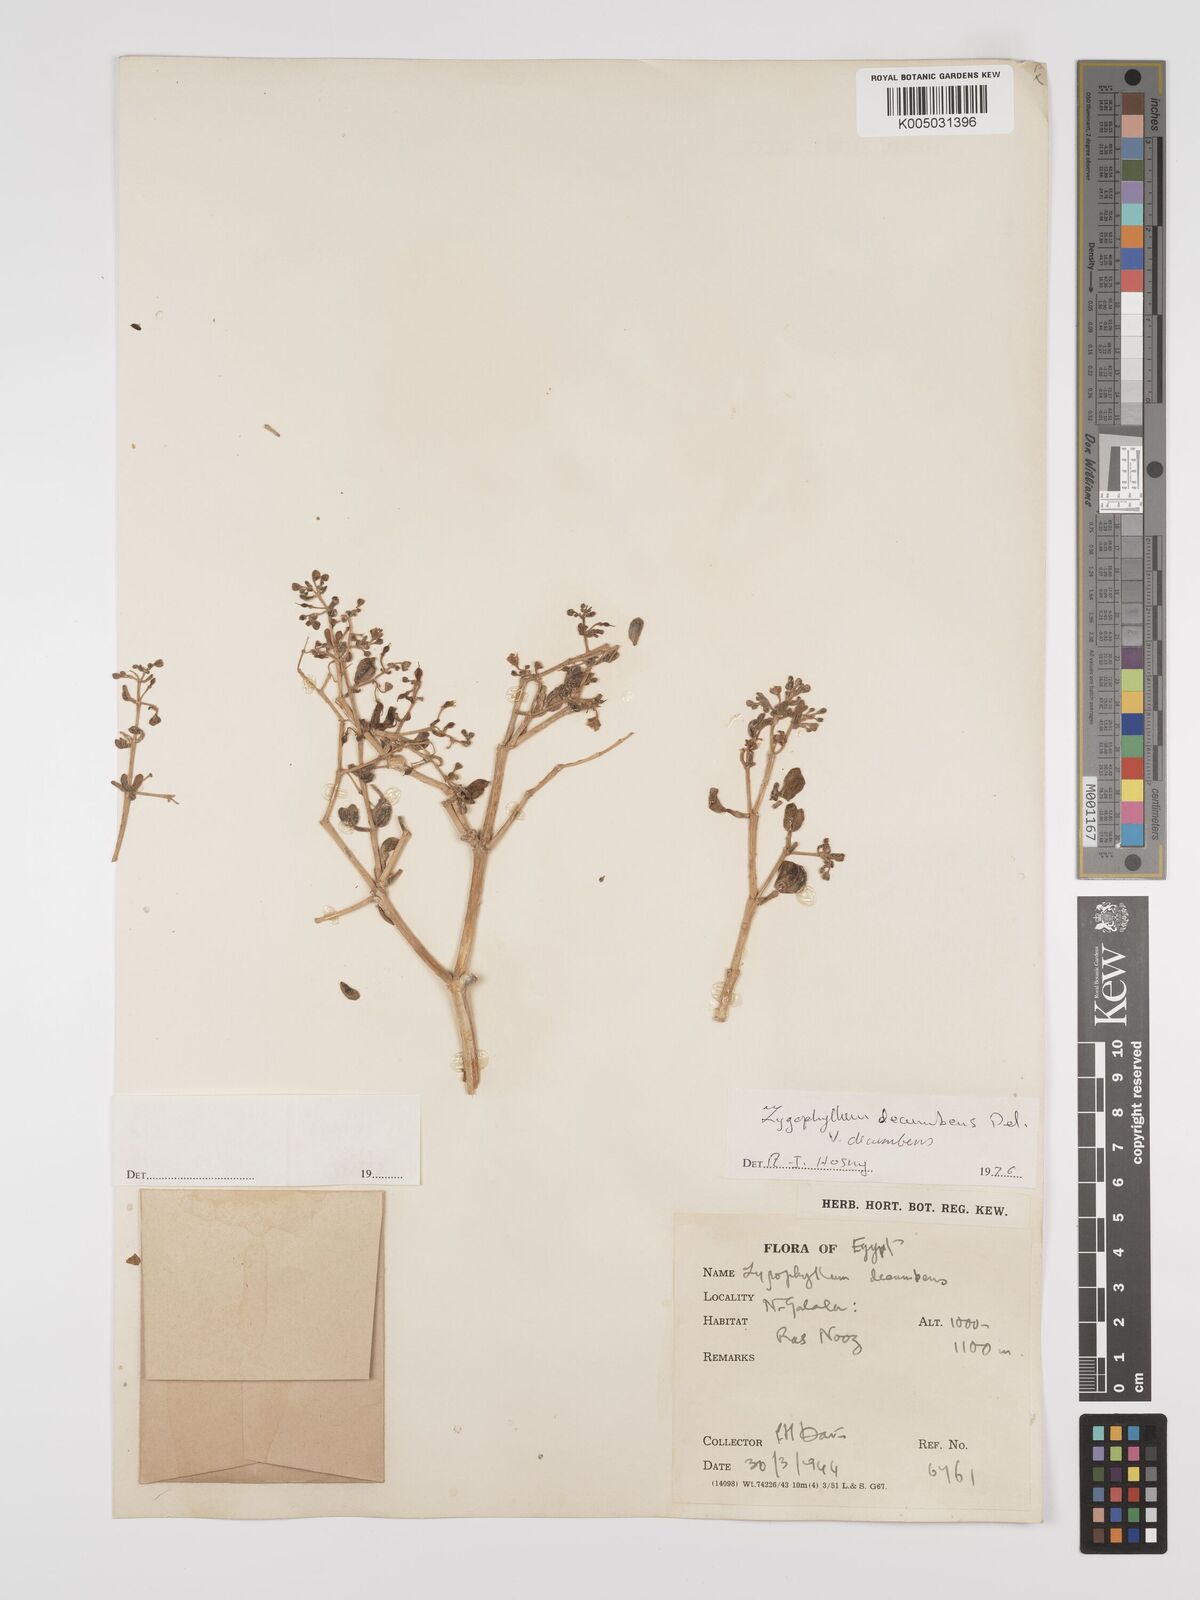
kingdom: Plantae
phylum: Tracheophyta
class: Magnoliopsida
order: Zygophyllales
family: Zygophyllaceae
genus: Tetraena
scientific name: Tetraena decumbens
